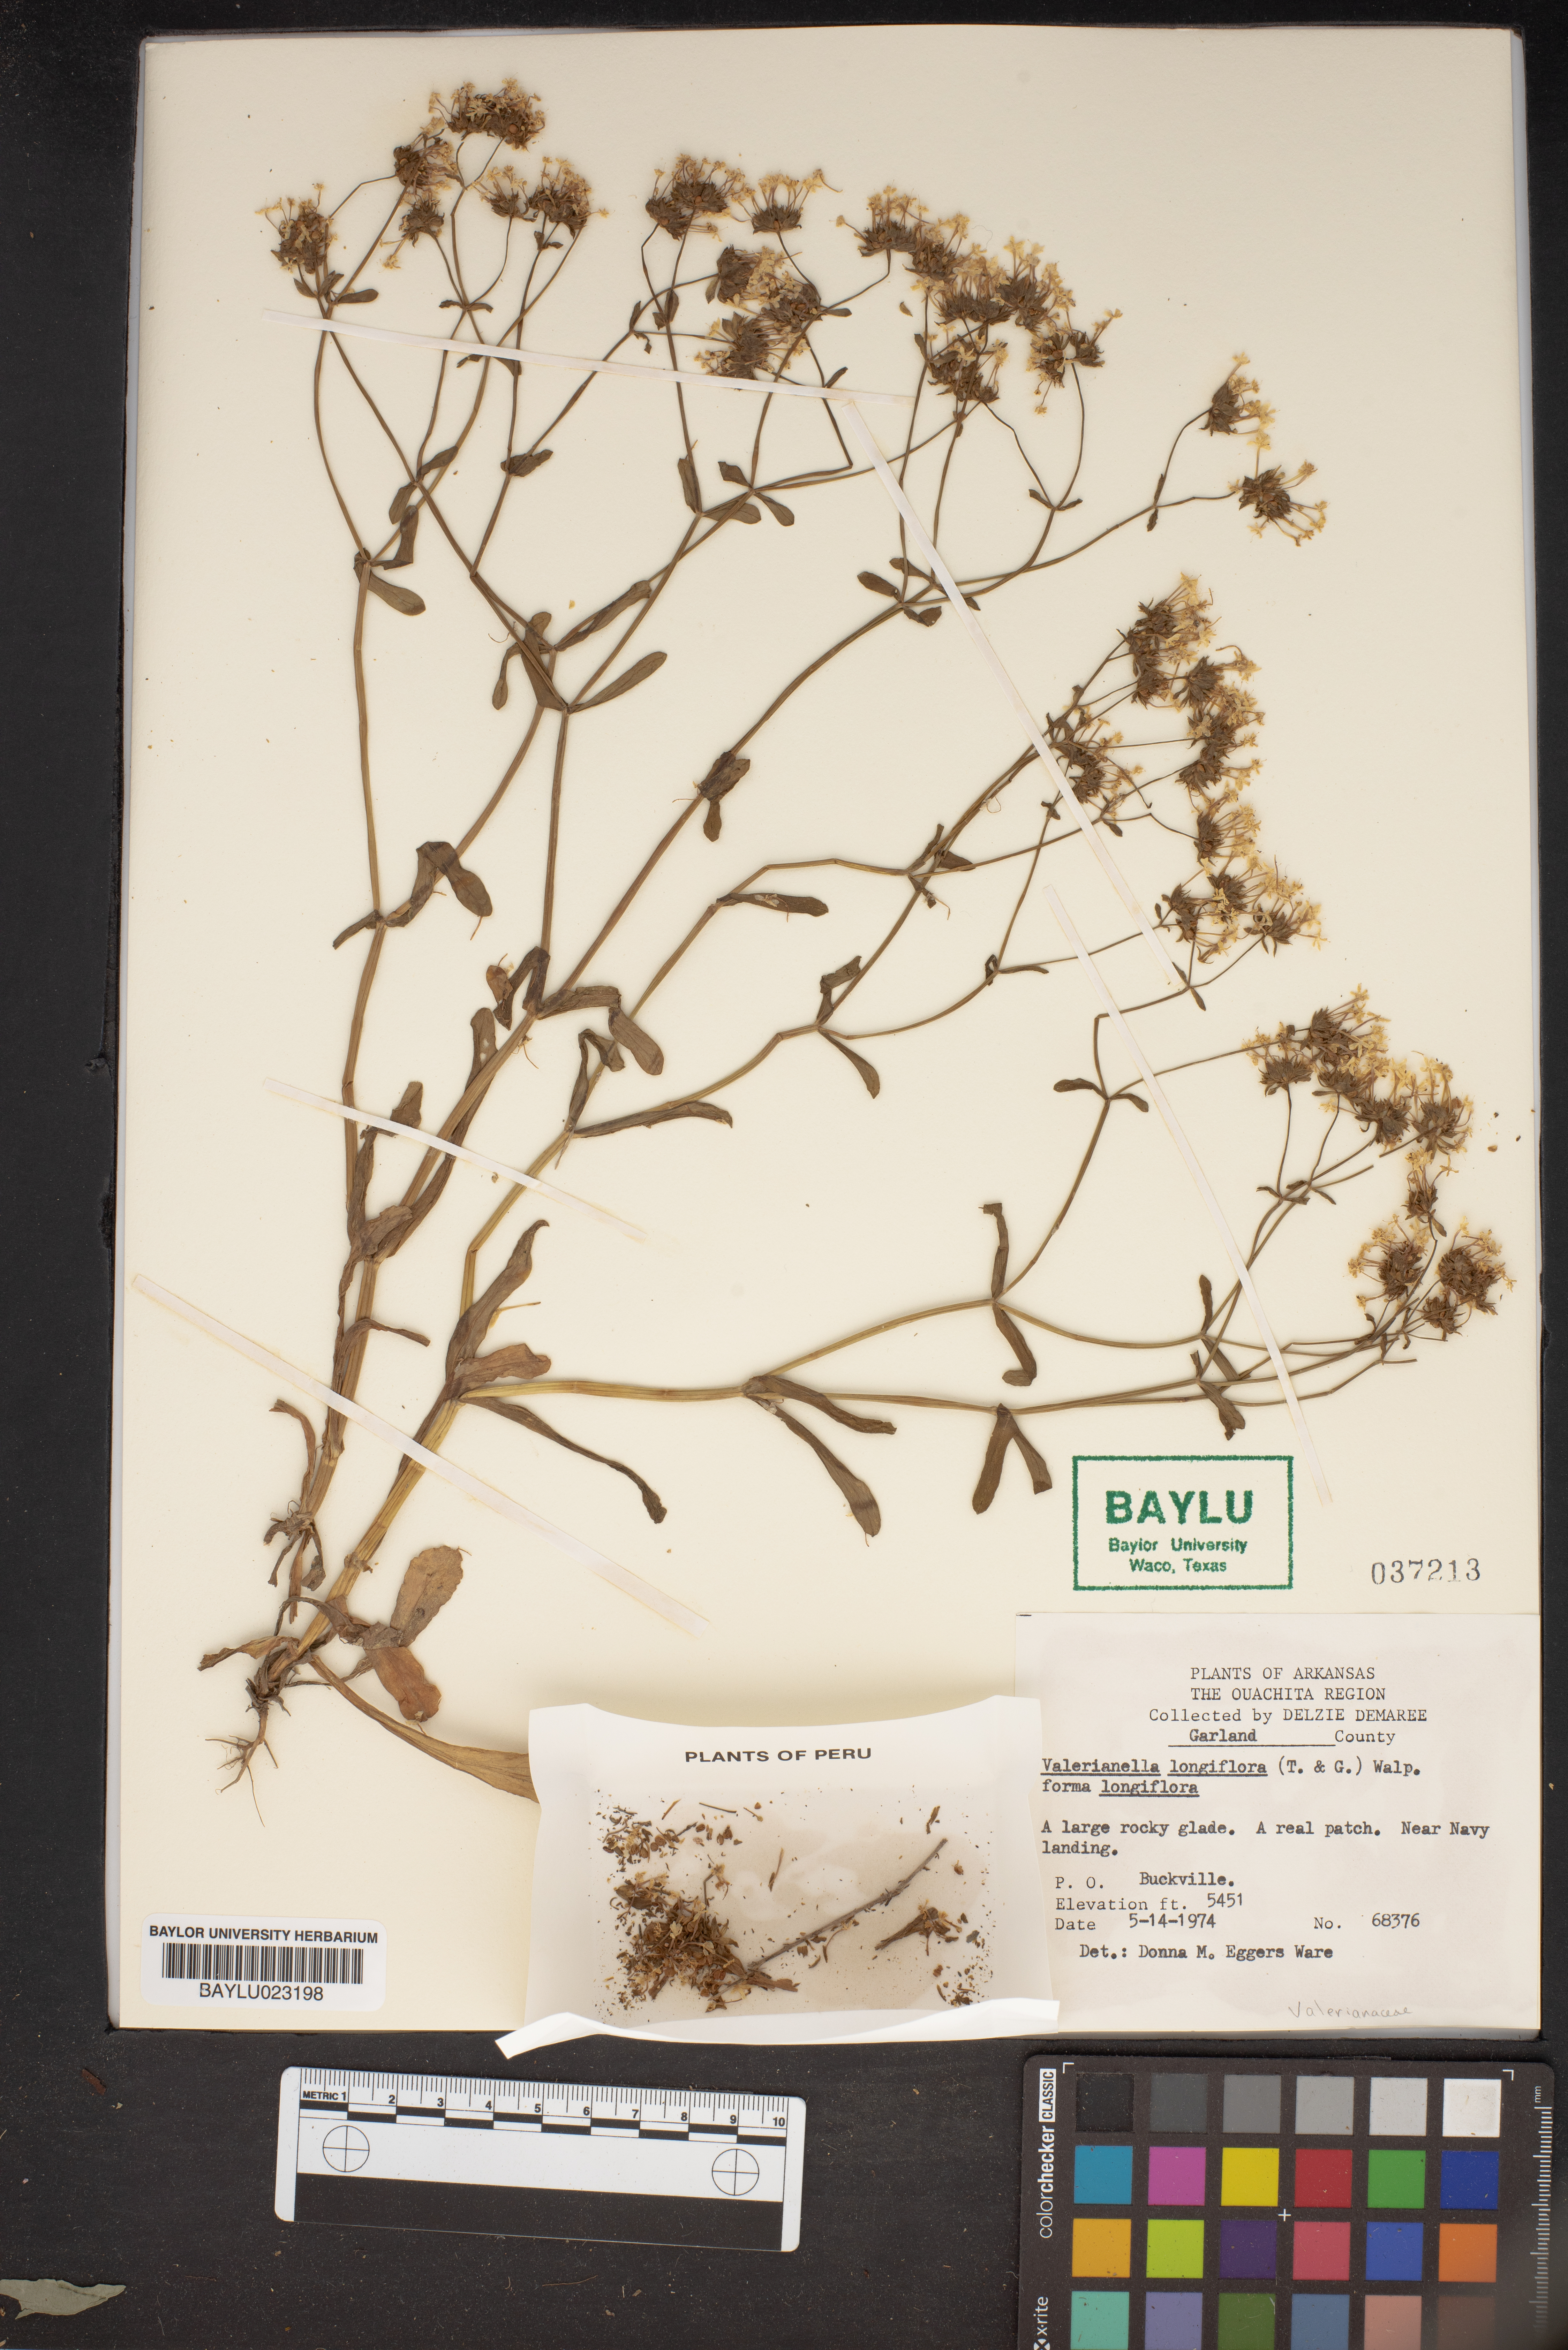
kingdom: Plantae
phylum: Tracheophyta
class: Magnoliopsida
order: Dipsacales
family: Caprifoliaceae
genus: Plectritis
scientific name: Plectritis longiflora
